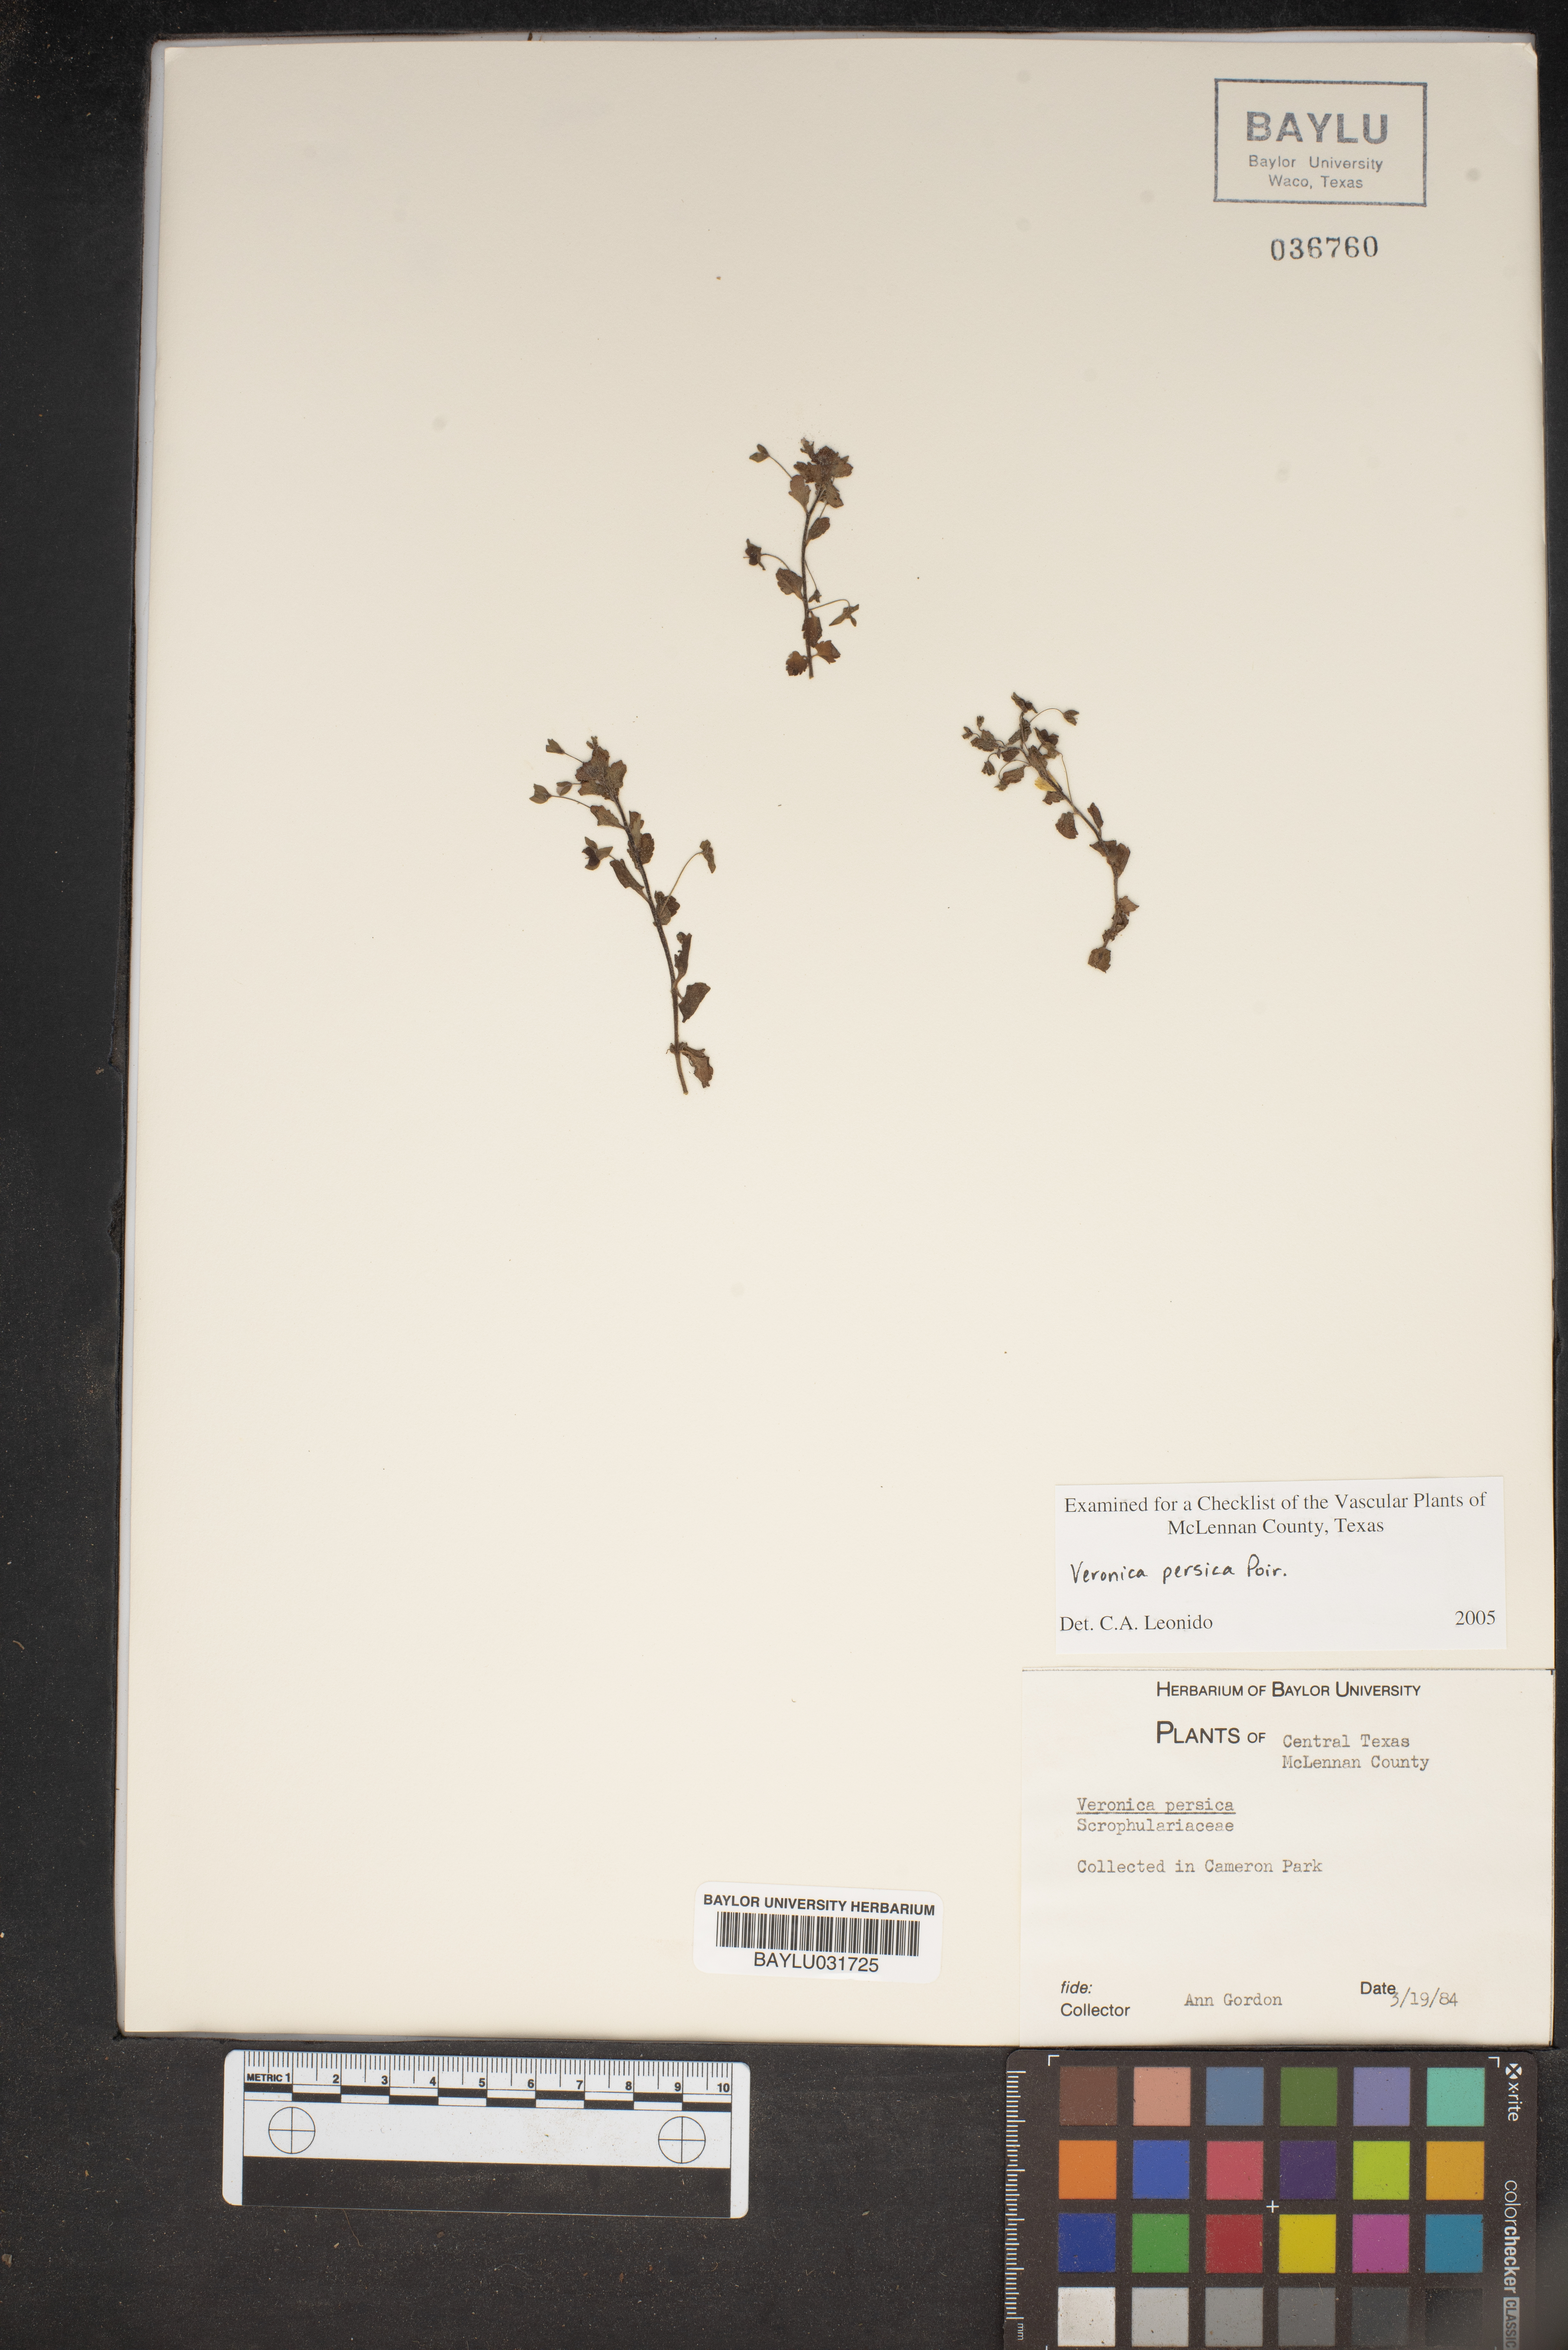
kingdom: Plantae
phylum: Tracheophyta
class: Magnoliopsida
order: Lamiales
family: Plantaginaceae
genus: Veronica
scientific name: Veronica persica
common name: Common field-speedwell
